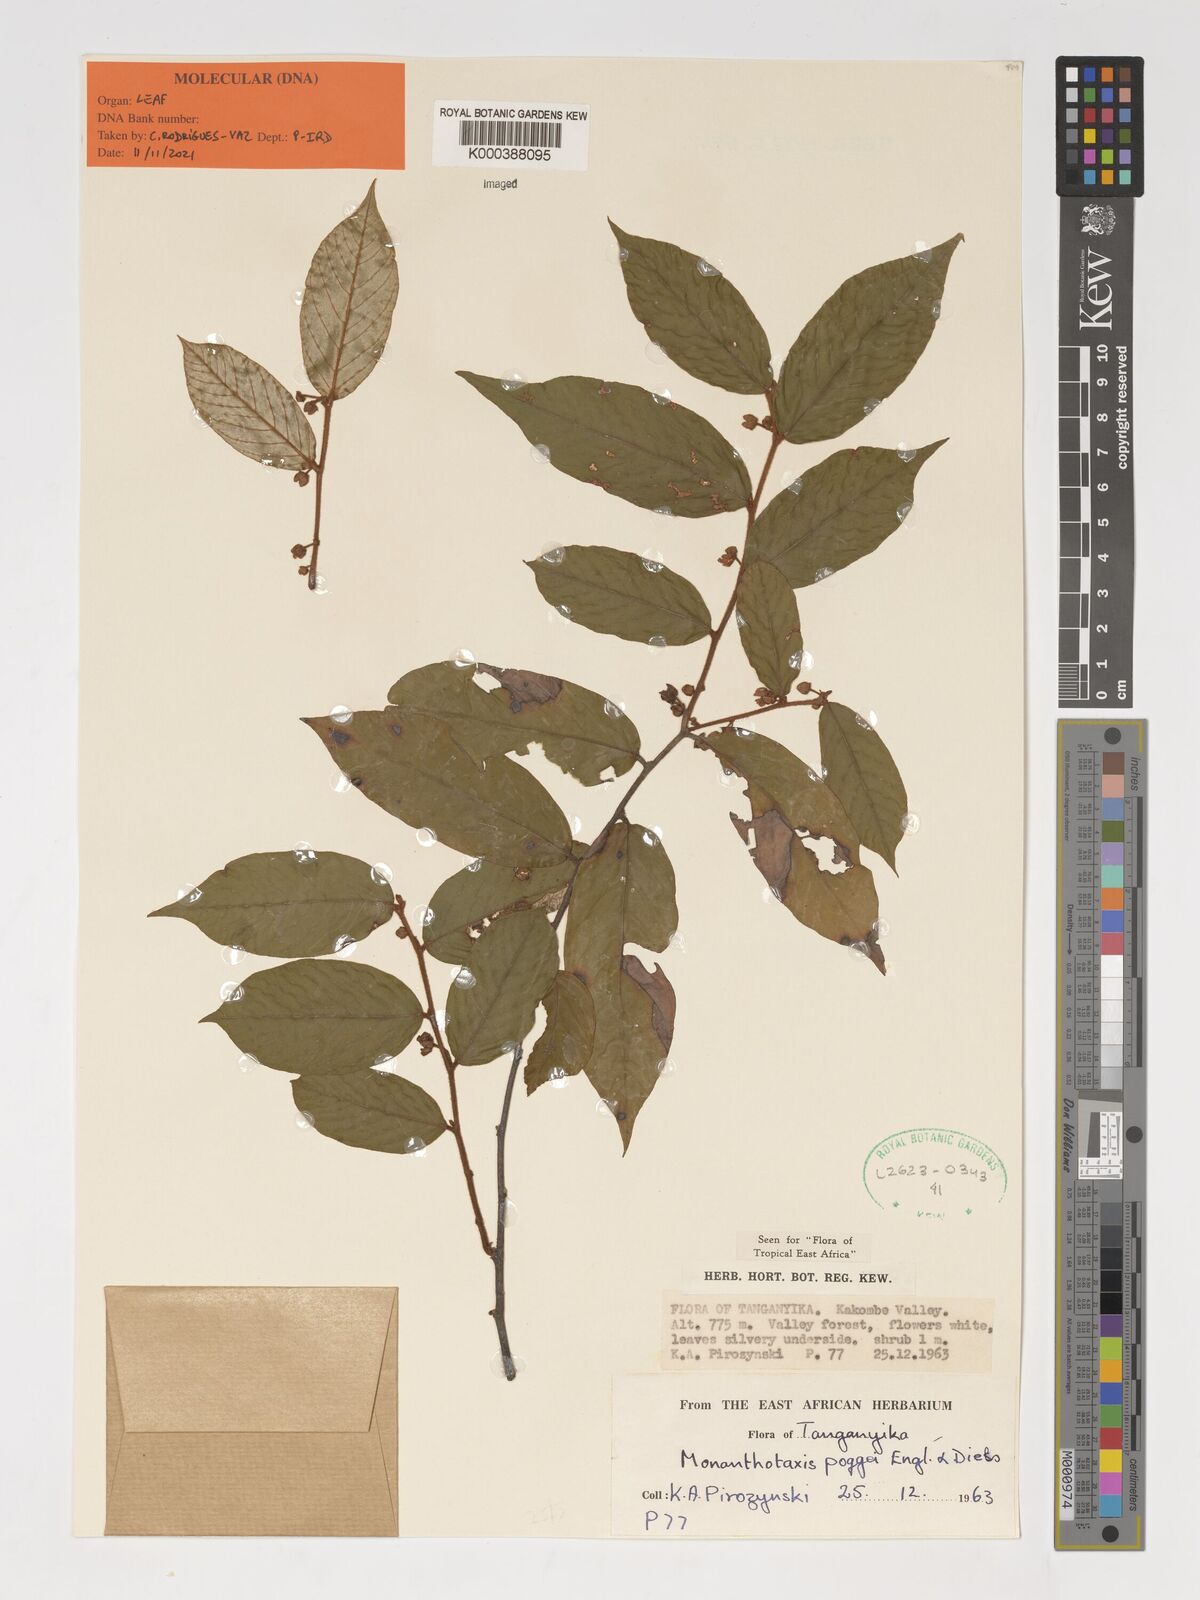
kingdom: Plantae
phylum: Tracheophyta
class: Magnoliopsida
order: Magnoliales
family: Annonaceae
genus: Monanthotaxis
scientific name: Monanthotaxis poggei
